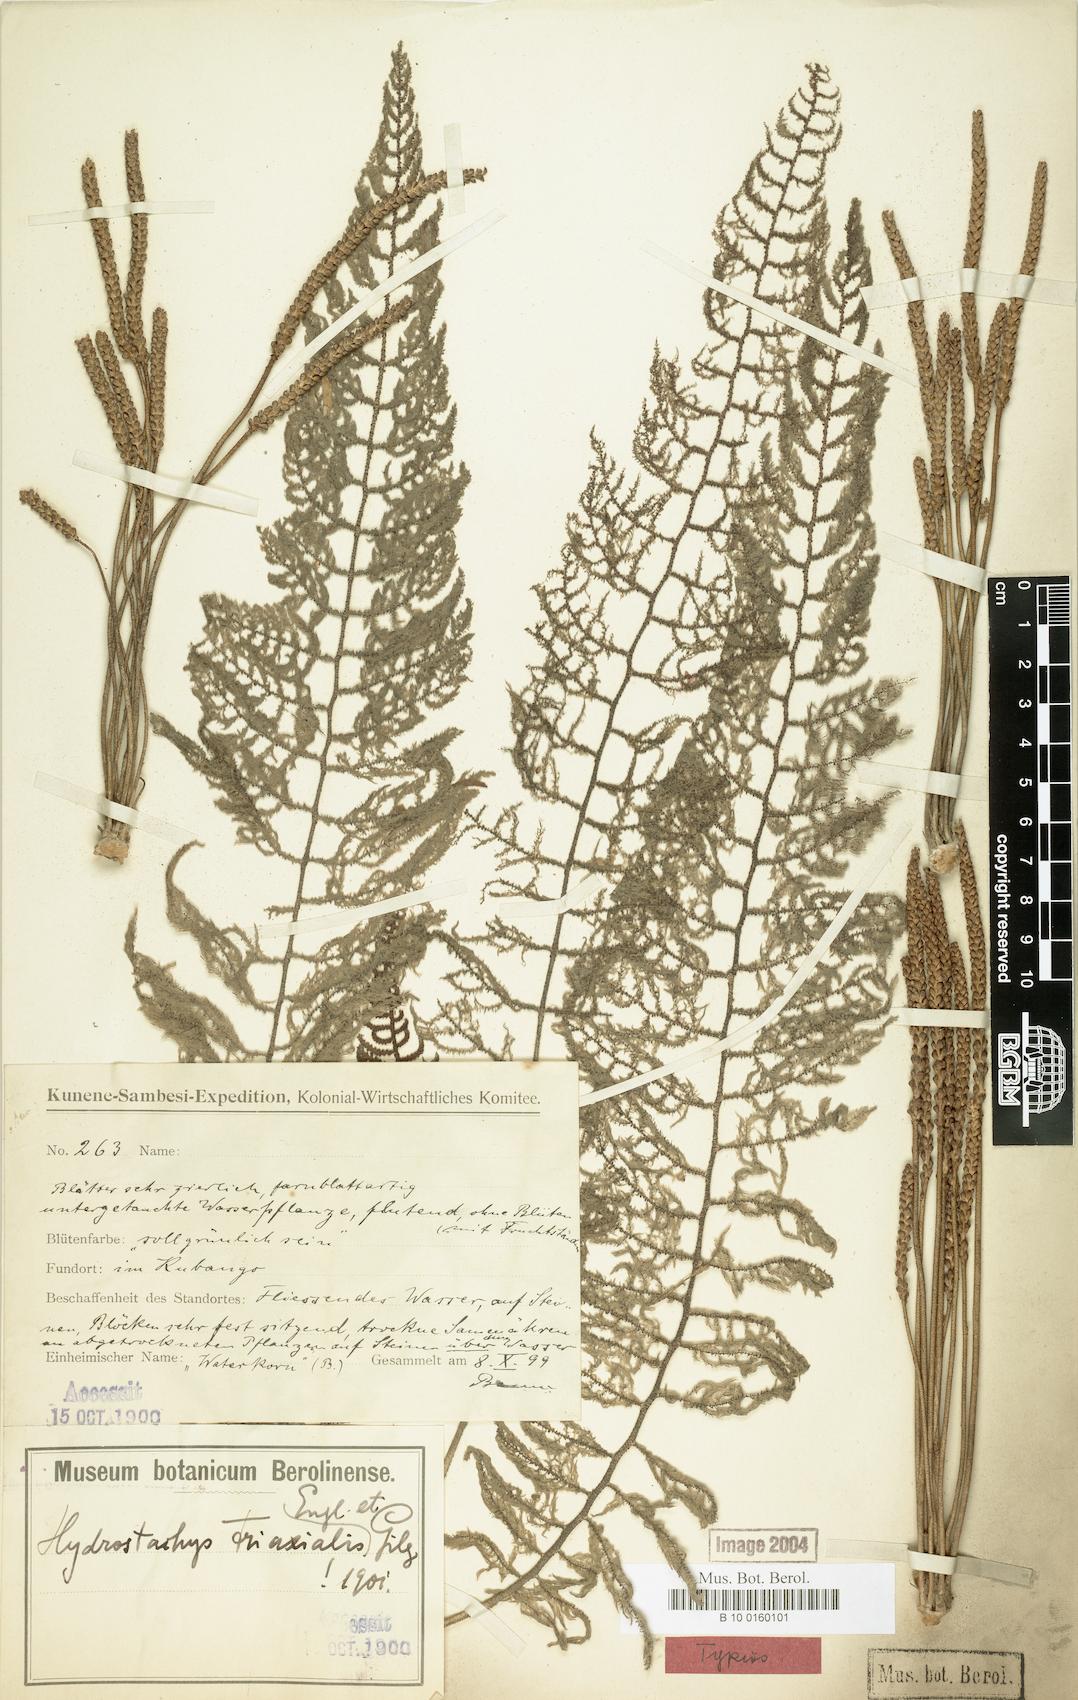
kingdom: Plantae
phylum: Tracheophyta
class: Magnoliopsida
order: Cornales
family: Hydrostachyaceae
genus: Hydrostachys
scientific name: Hydrostachys triaxialis
